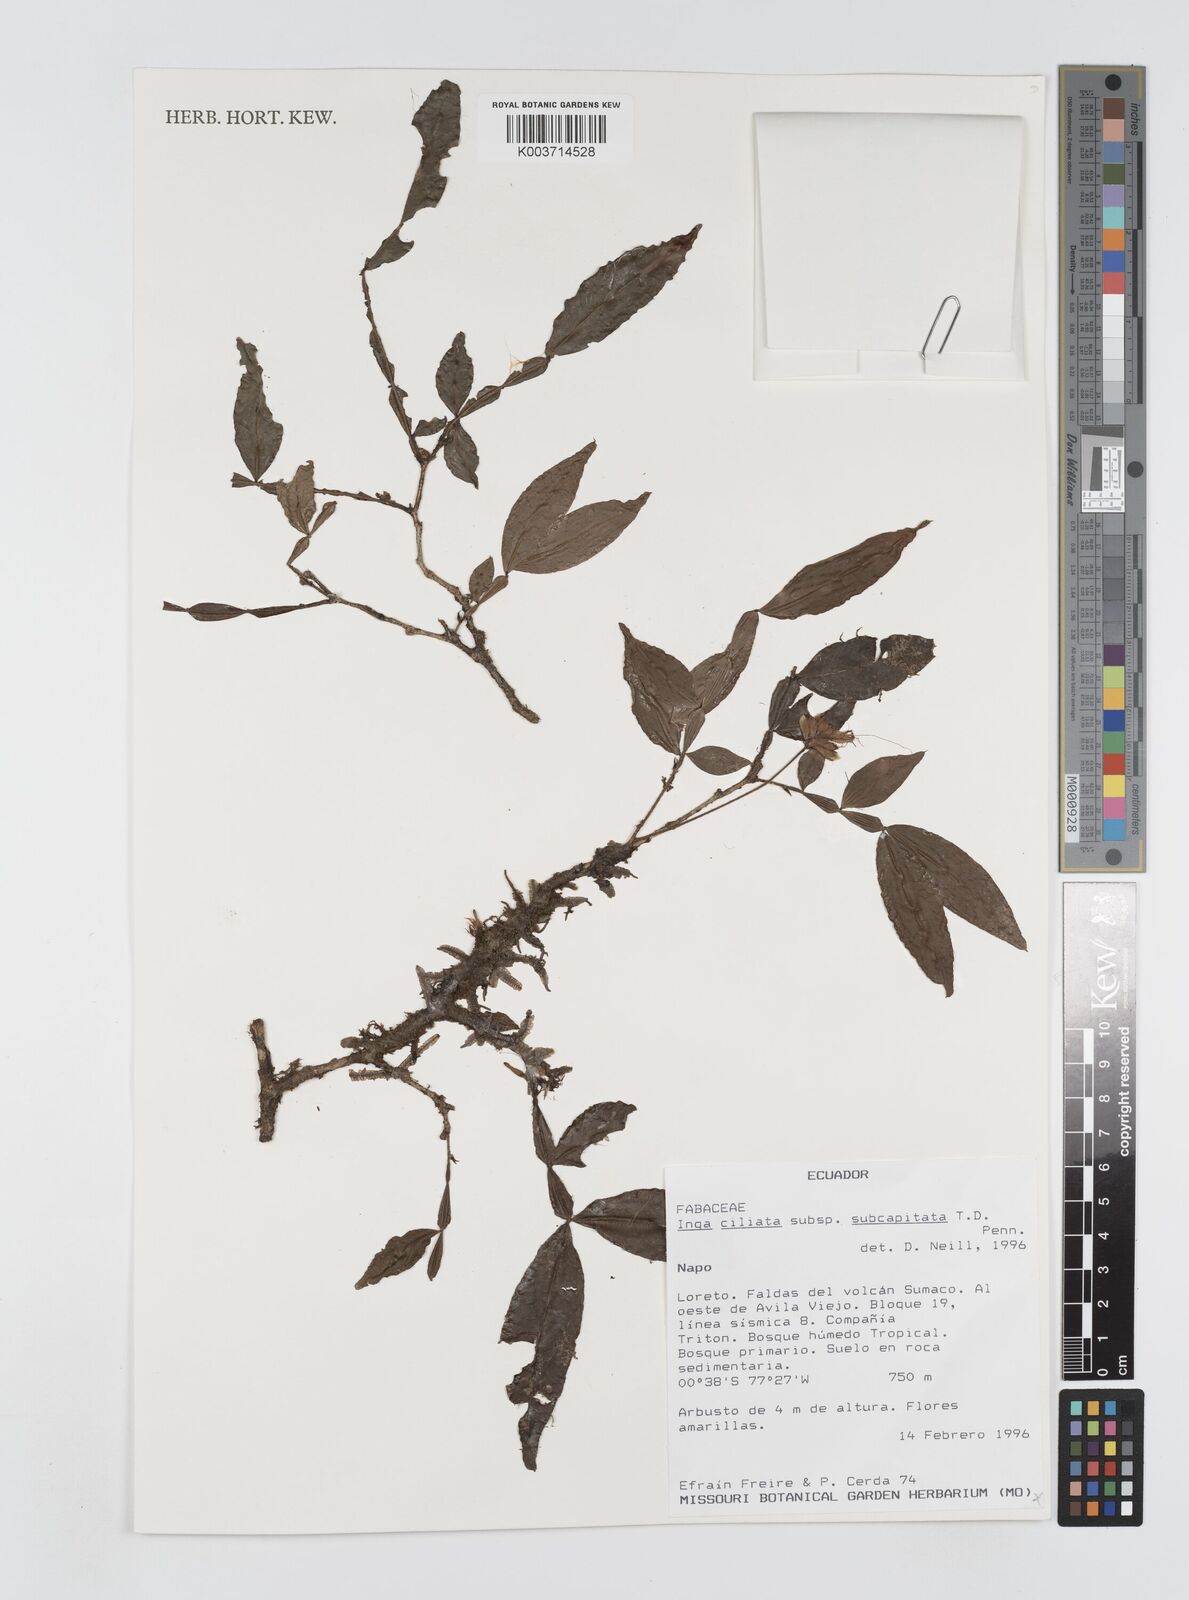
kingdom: Plantae
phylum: Tracheophyta
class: Magnoliopsida
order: Fabales
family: Fabaceae
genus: Inga
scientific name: Inga ciliata
